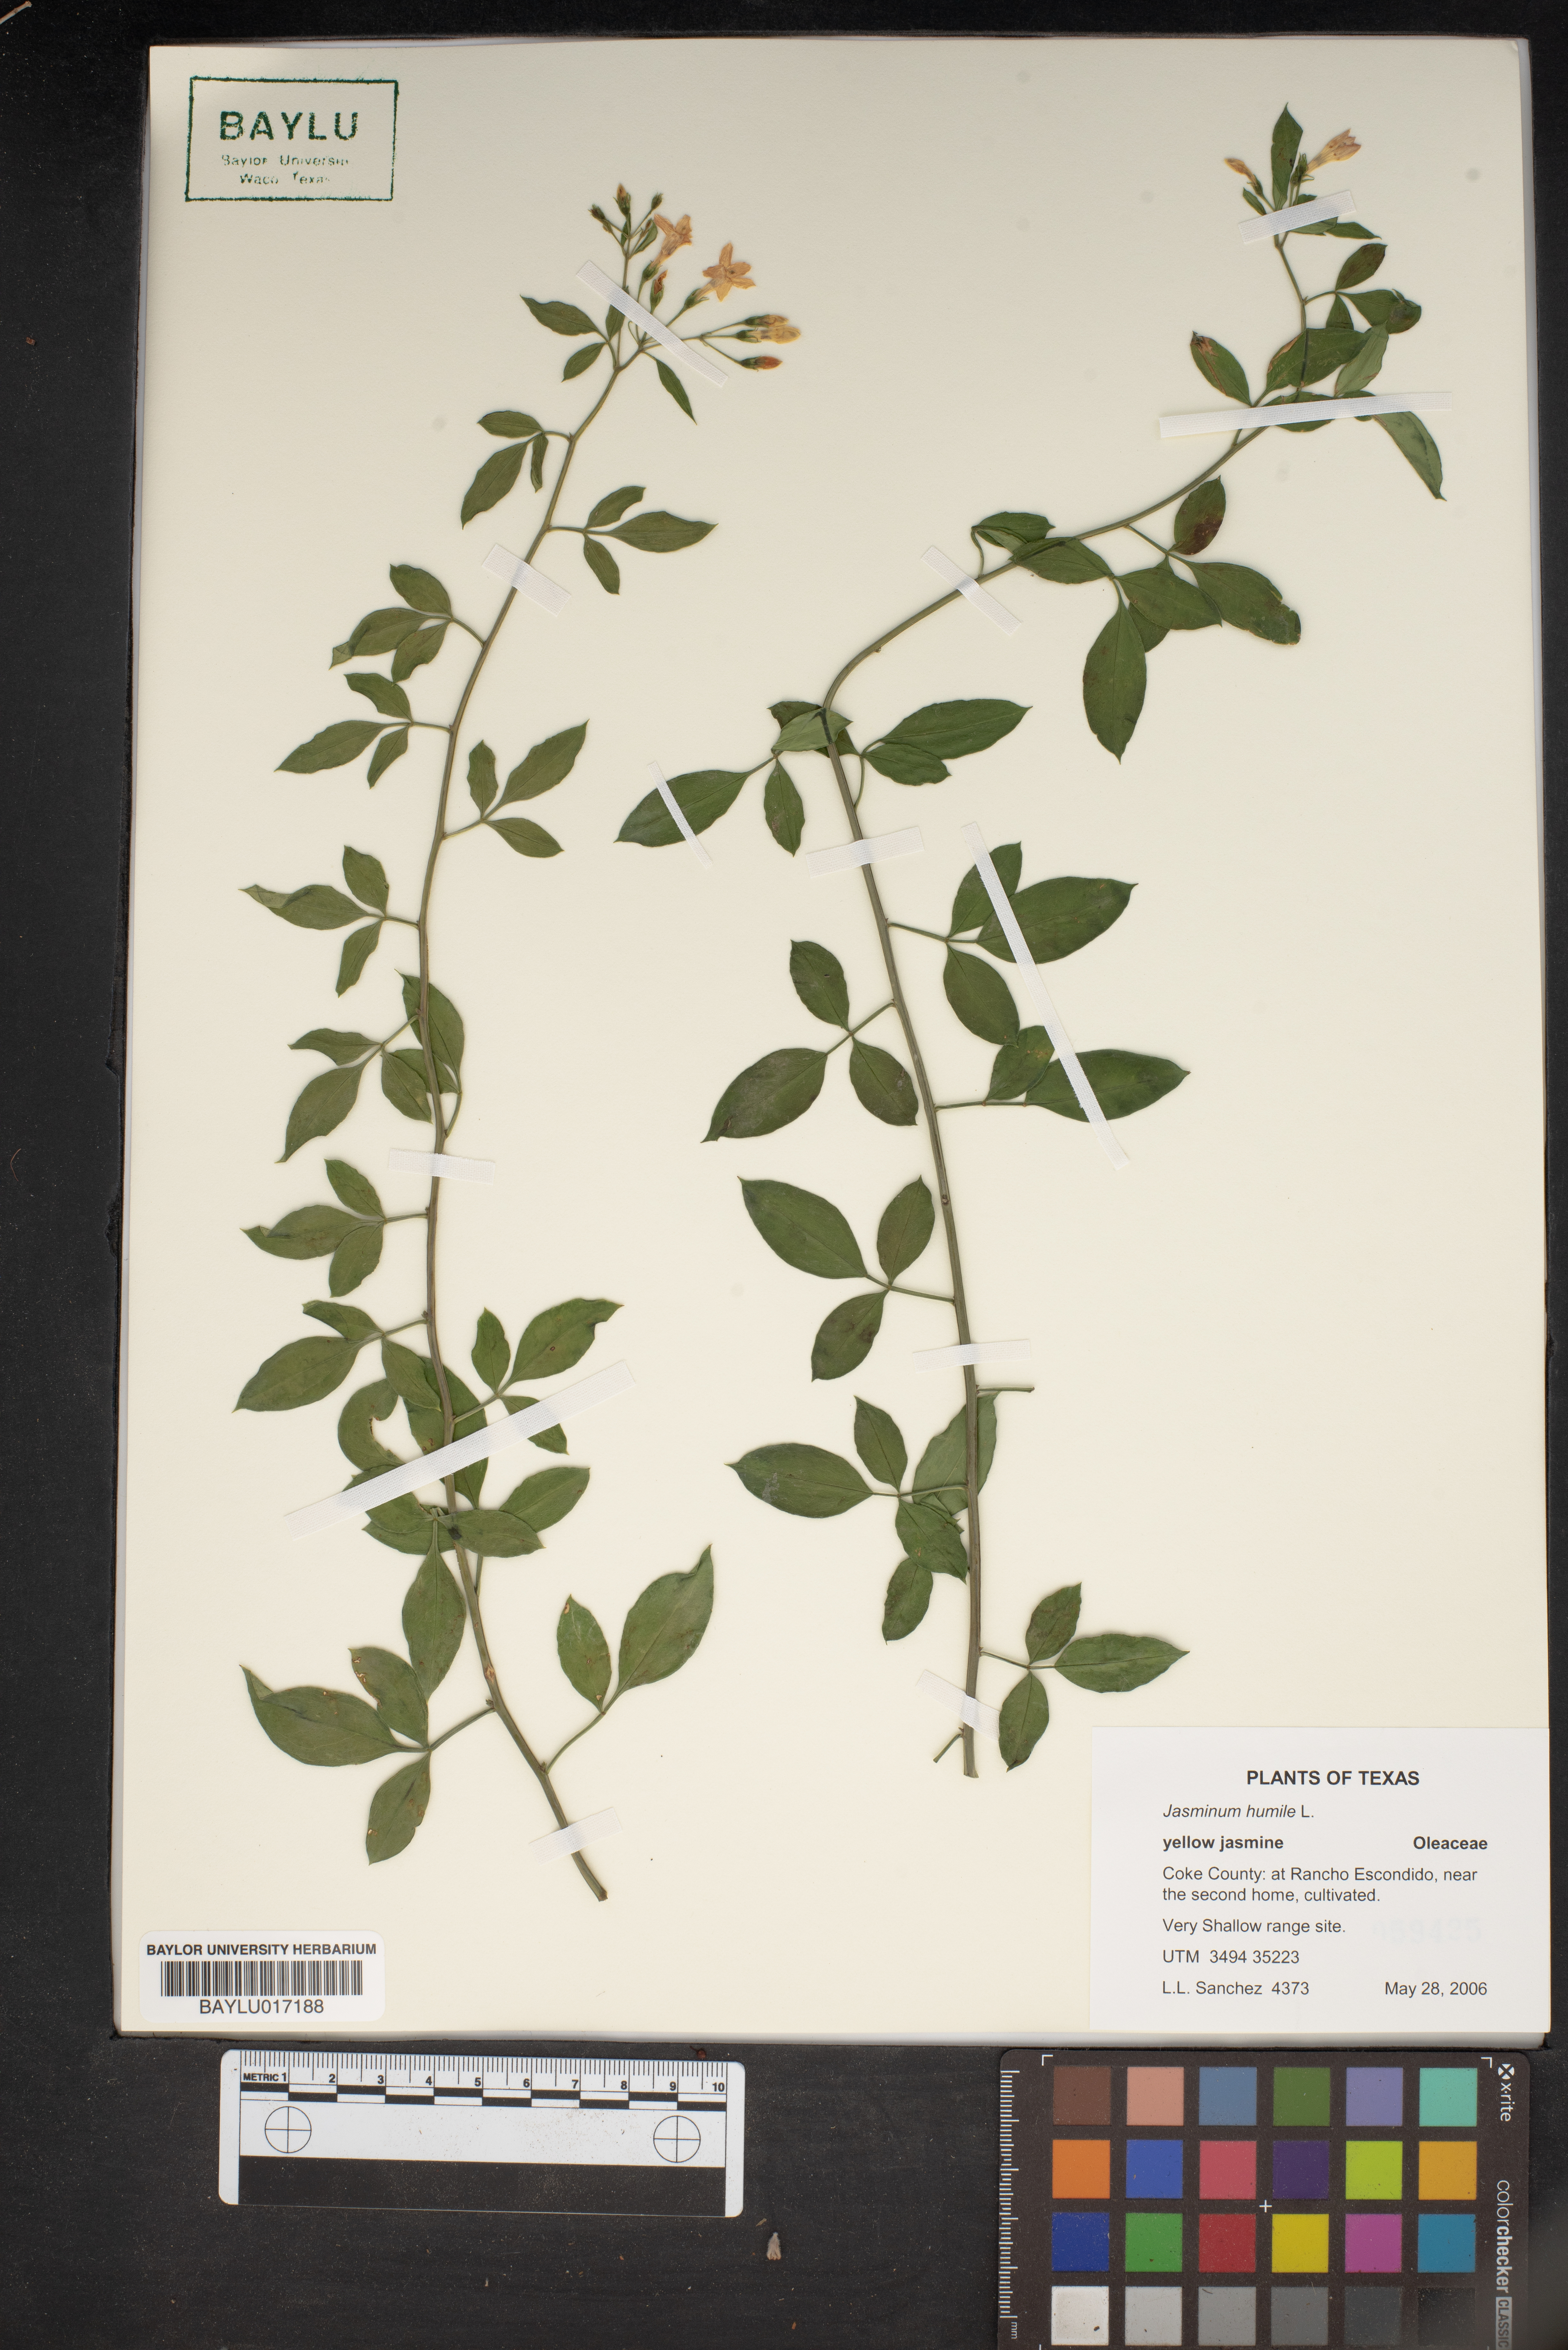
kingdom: Plantae
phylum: Tracheophyta
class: Magnoliopsida
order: Lamiales
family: Oleaceae
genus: Chrysojasminum
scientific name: Chrysojasminum humile
